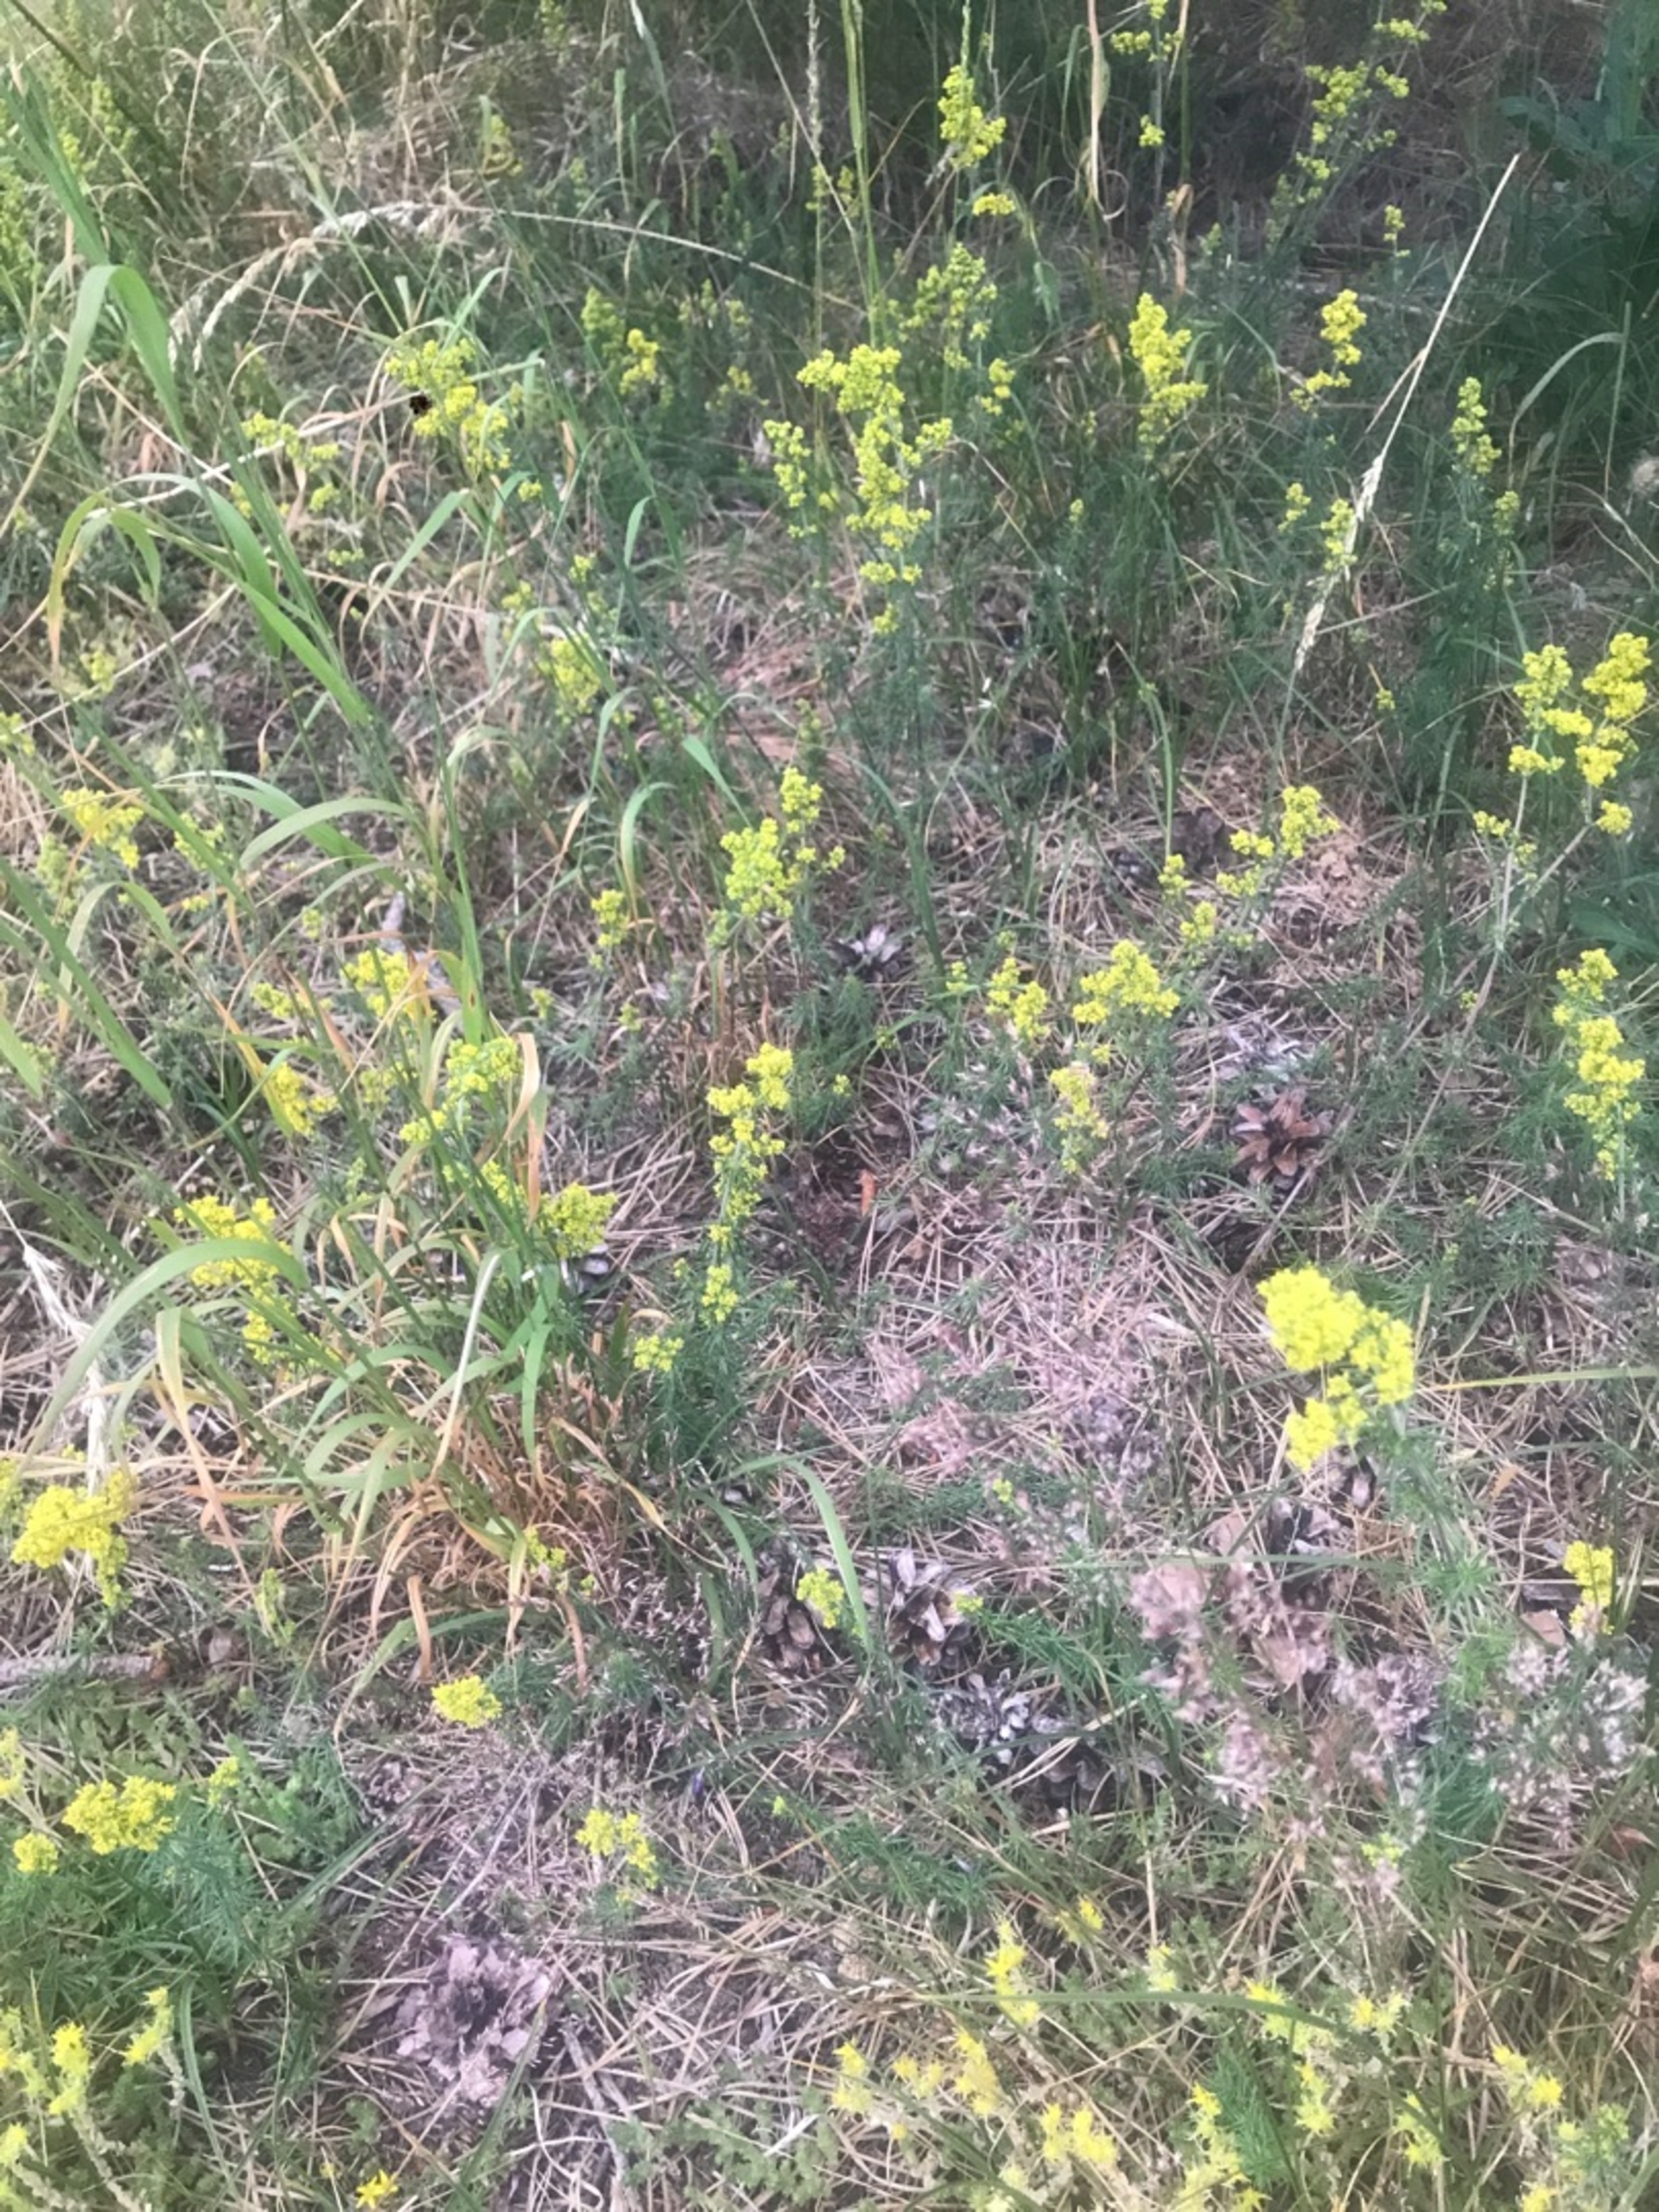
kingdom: Plantae
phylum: Tracheophyta
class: Magnoliopsida
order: Gentianales
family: Rubiaceae
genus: Galium
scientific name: Galium verum
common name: Gul snerre
